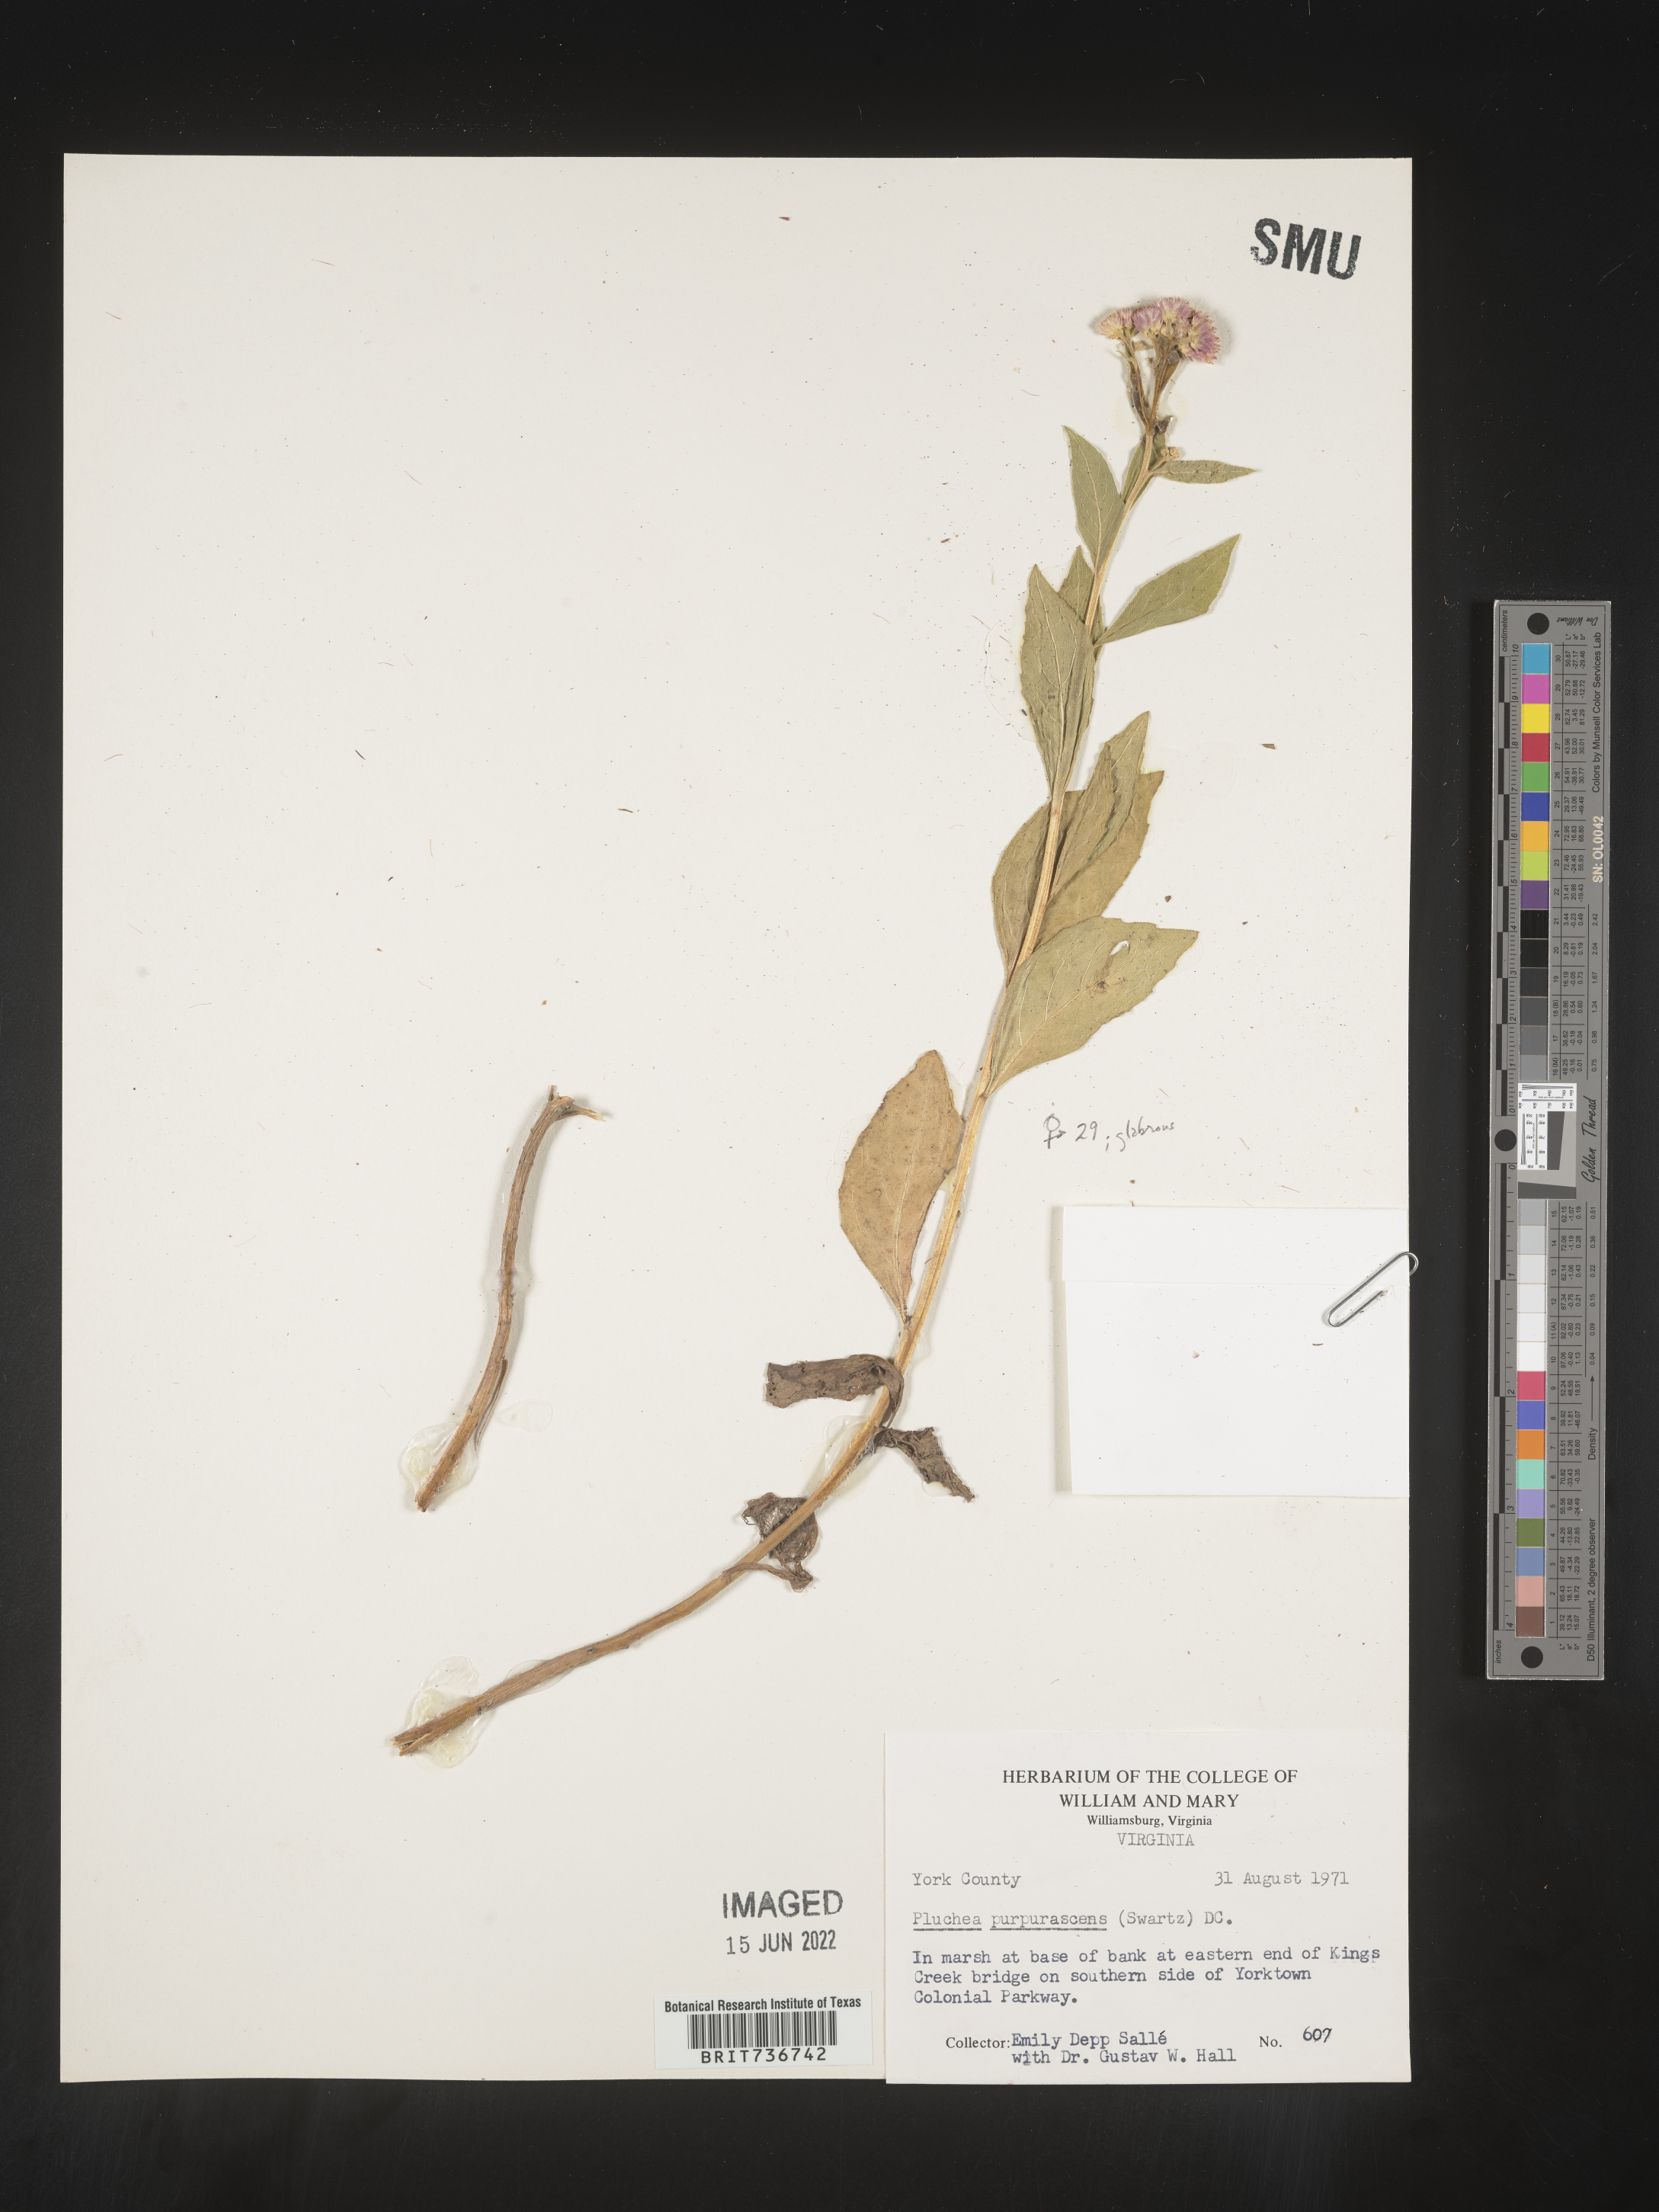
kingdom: Plantae
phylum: Tracheophyta
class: Magnoliopsida
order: Asterales
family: Asteraceae
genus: Pluchea
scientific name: Pluchea odorata
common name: Saltmarsh fleabane
